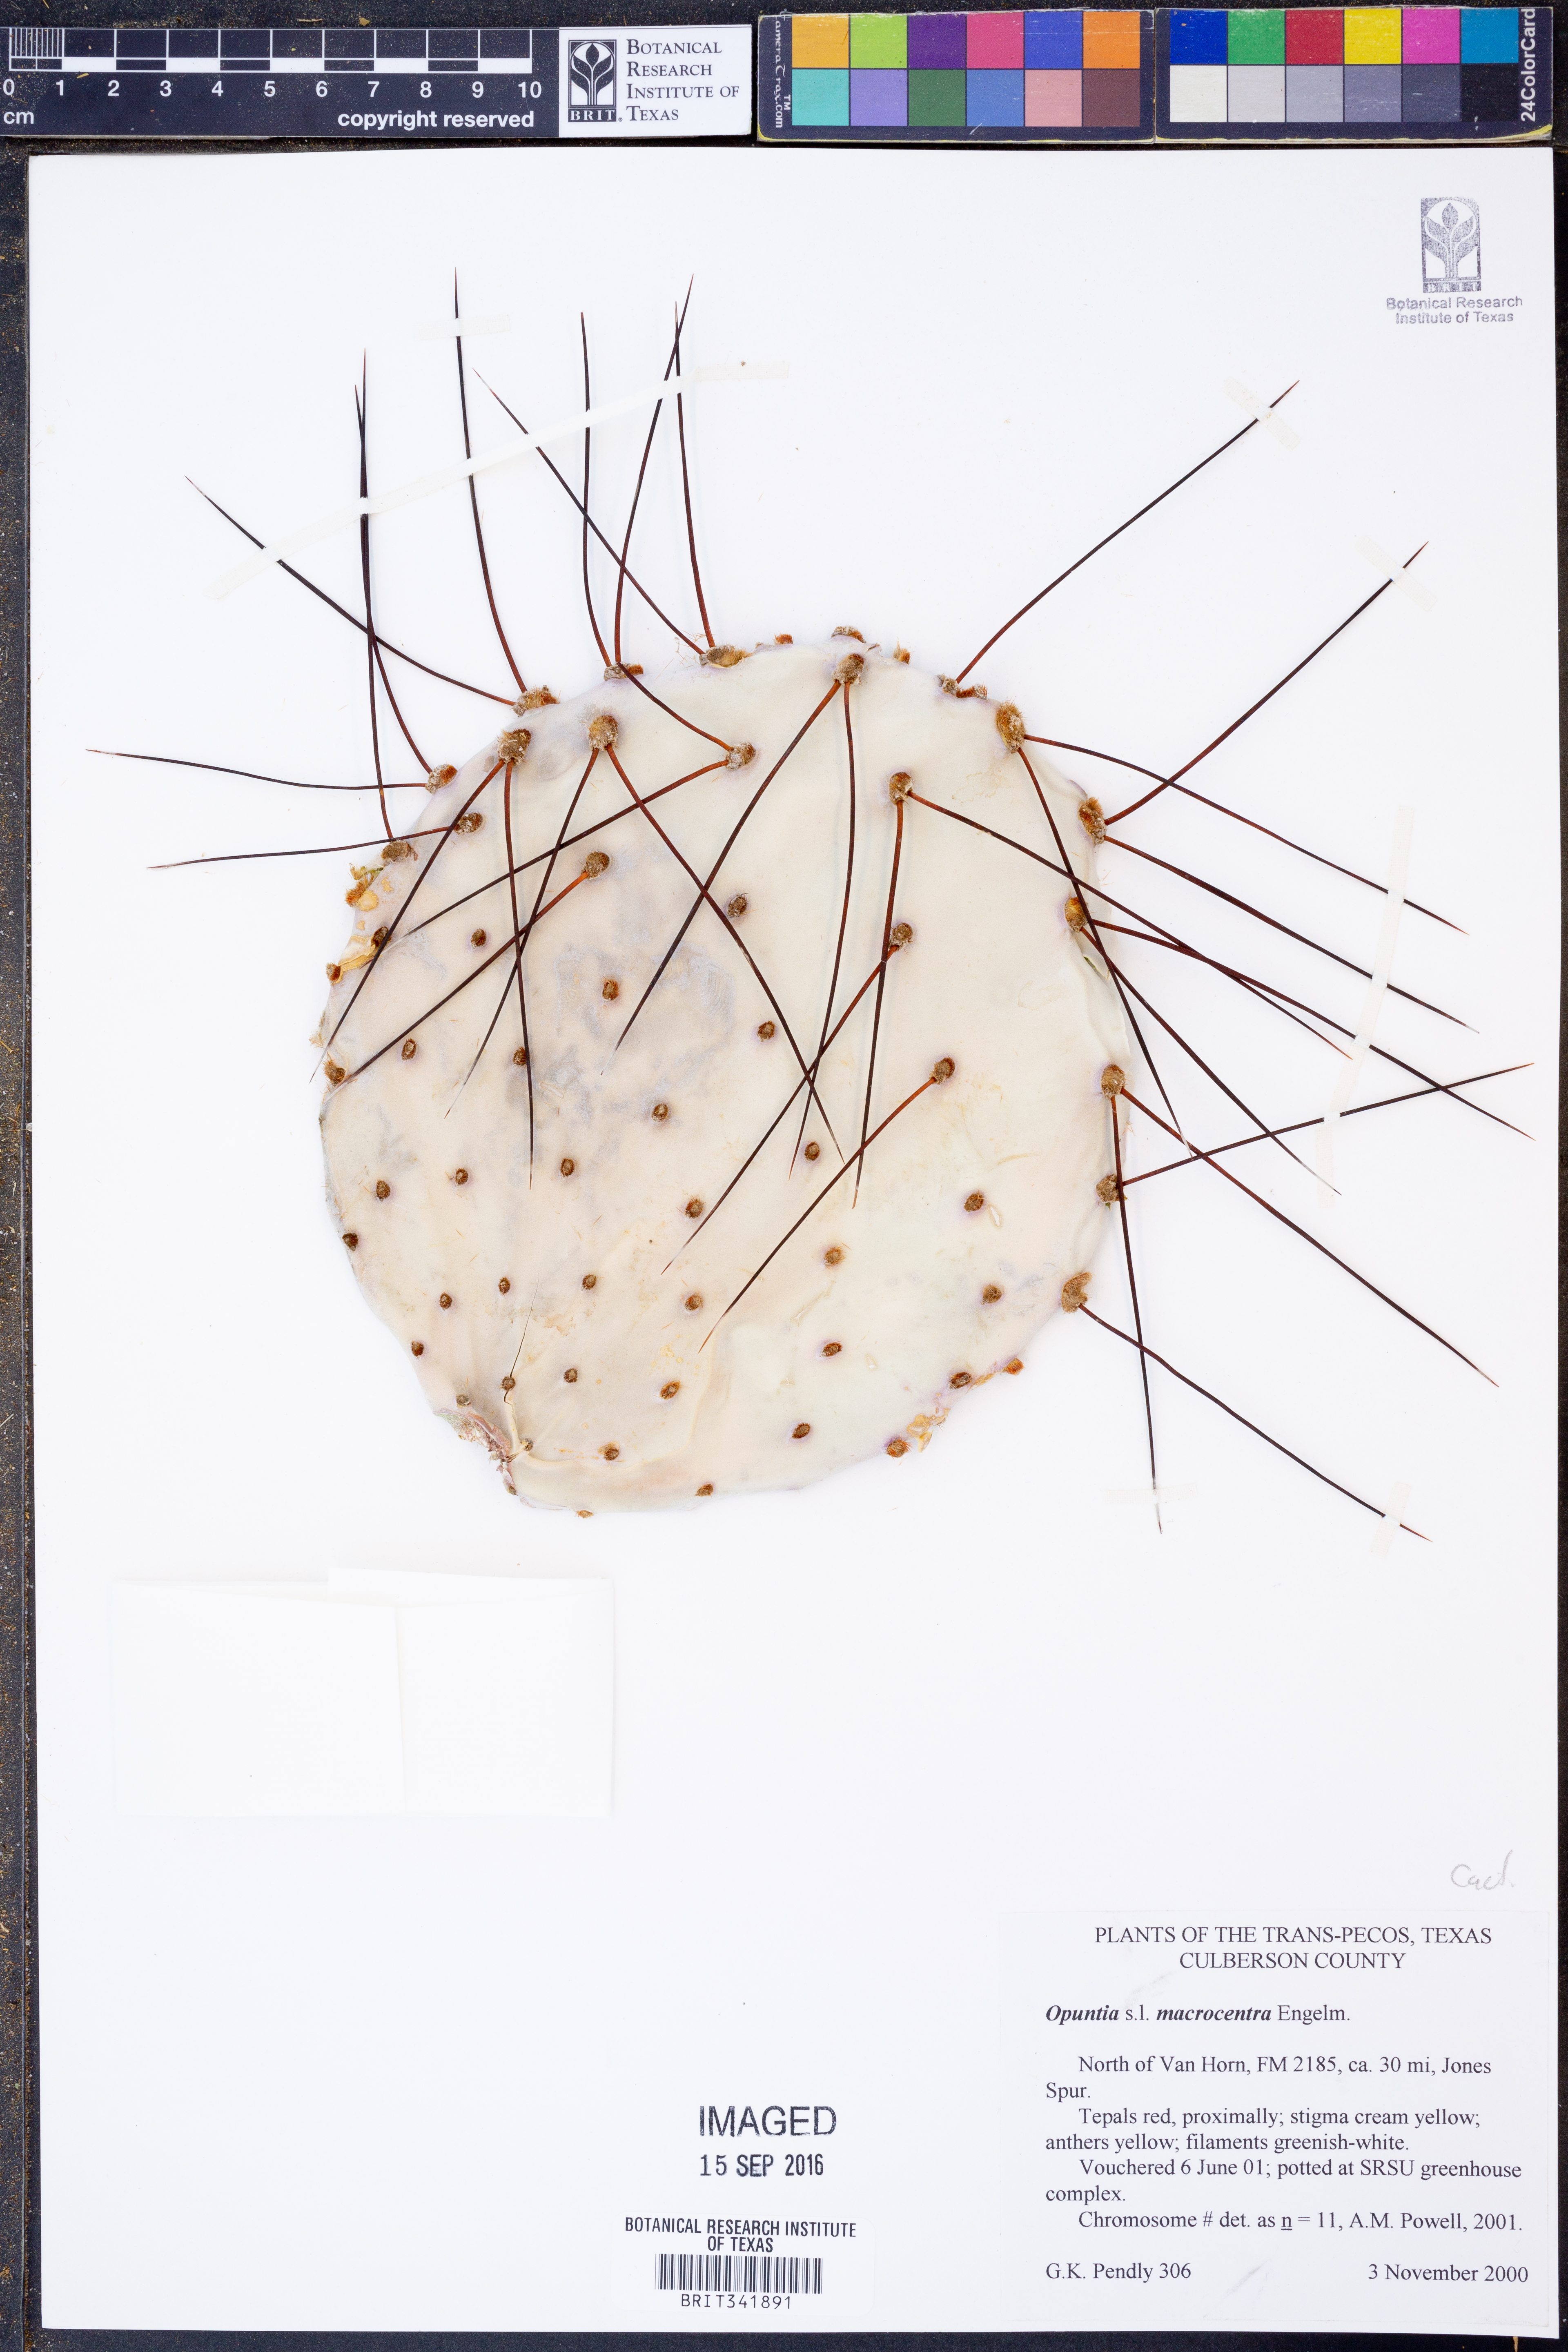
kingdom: Plantae
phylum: Tracheophyta
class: Magnoliopsida
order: Caryophyllales
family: Cactaceae
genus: Opuntia
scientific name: Opuntia macrocentra
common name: Purple prickly-pear
